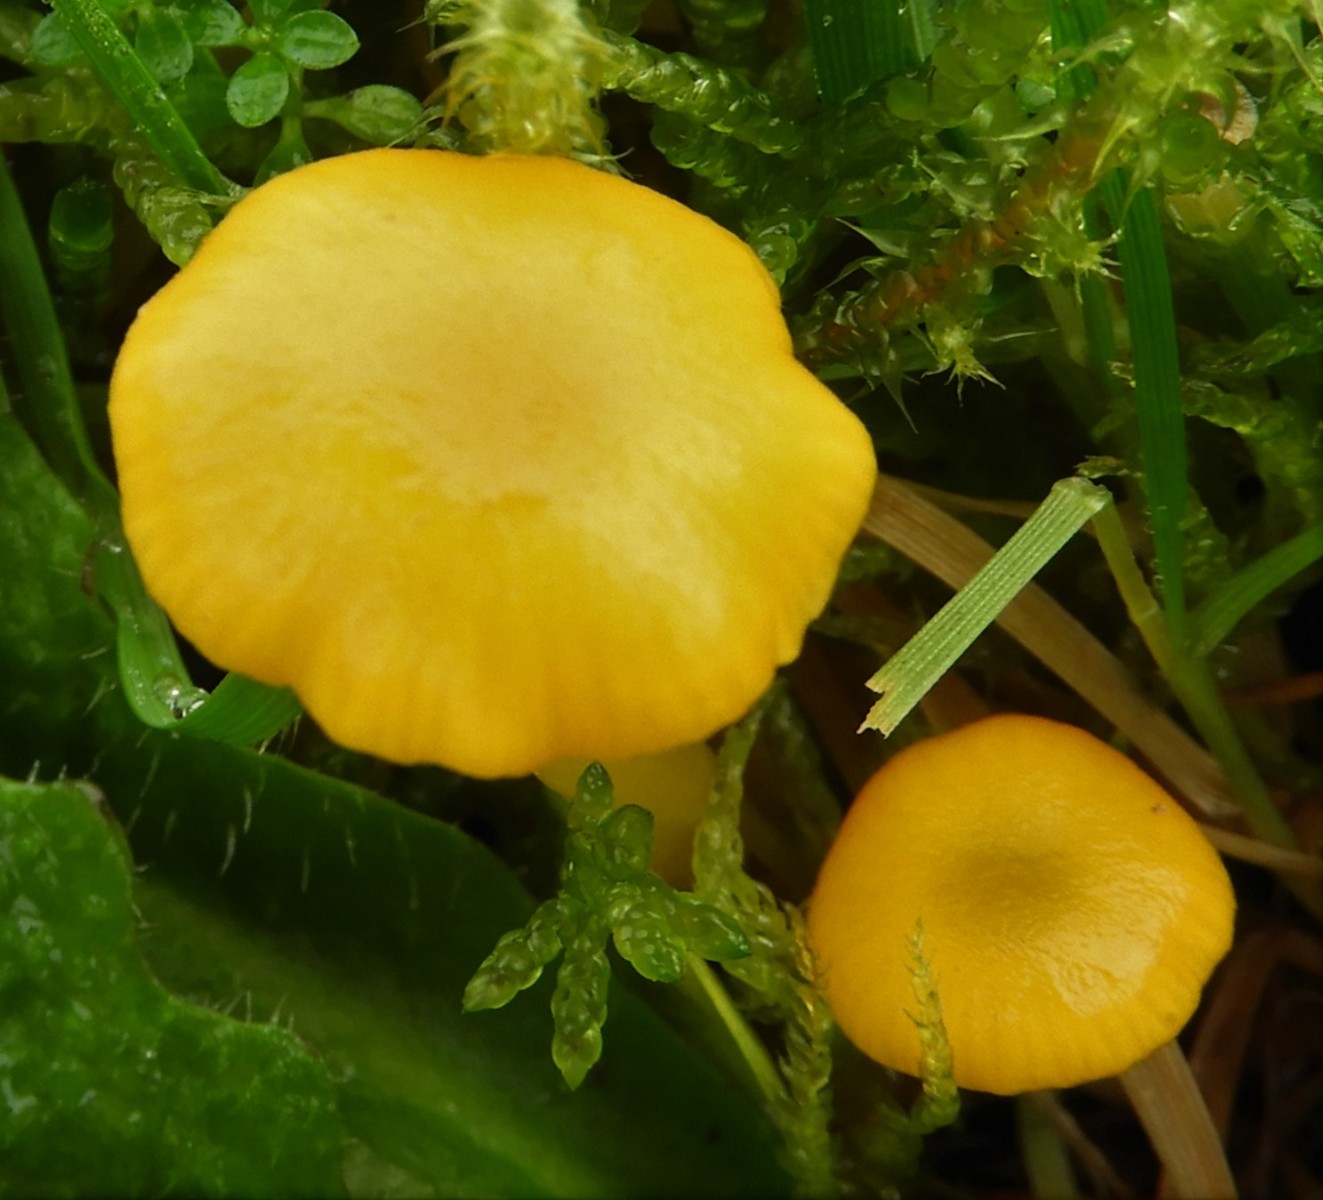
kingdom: Fungi
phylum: Basidiomycota
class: Agaricomycetes
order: Agaricales
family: Hygrophoraceae
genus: Hygrocybe
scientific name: Hygrocybe ceracea
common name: voksgul vokshat
